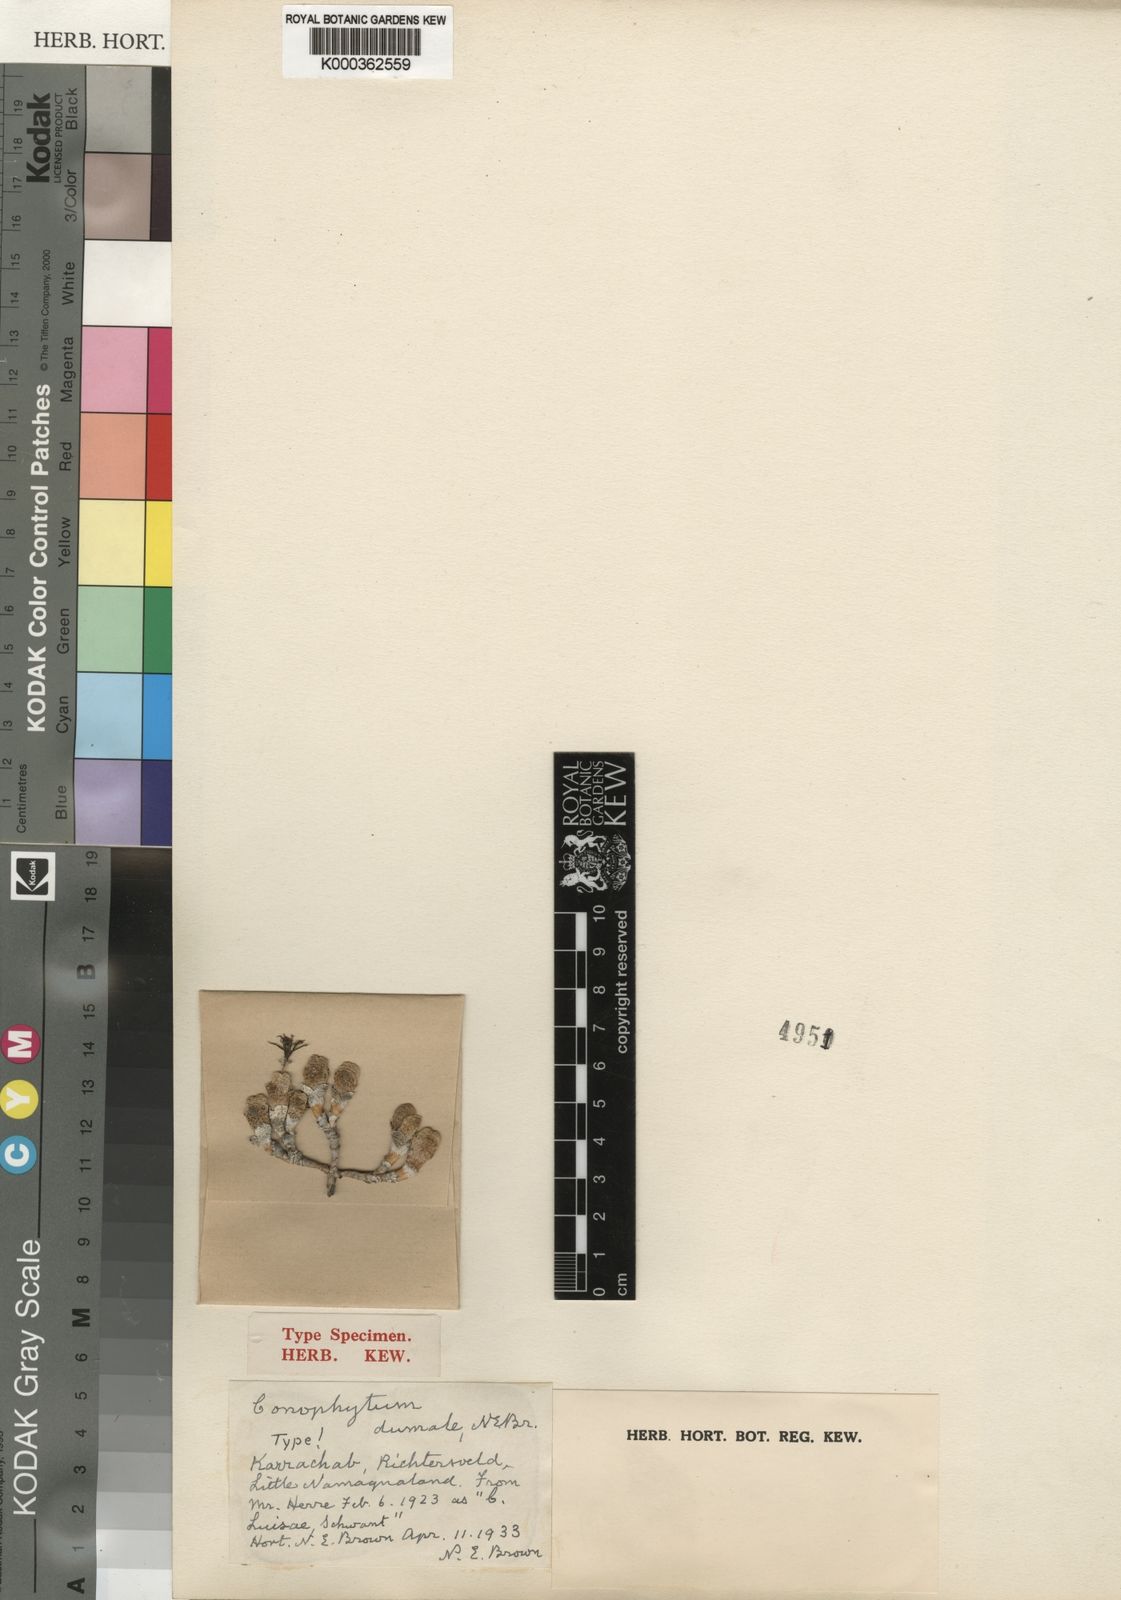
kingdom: Plantae
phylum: Tracheophyta
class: Magnoliopsida
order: Caryophyllales
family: Aizoaceae
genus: Conophytum
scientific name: Conophytum
